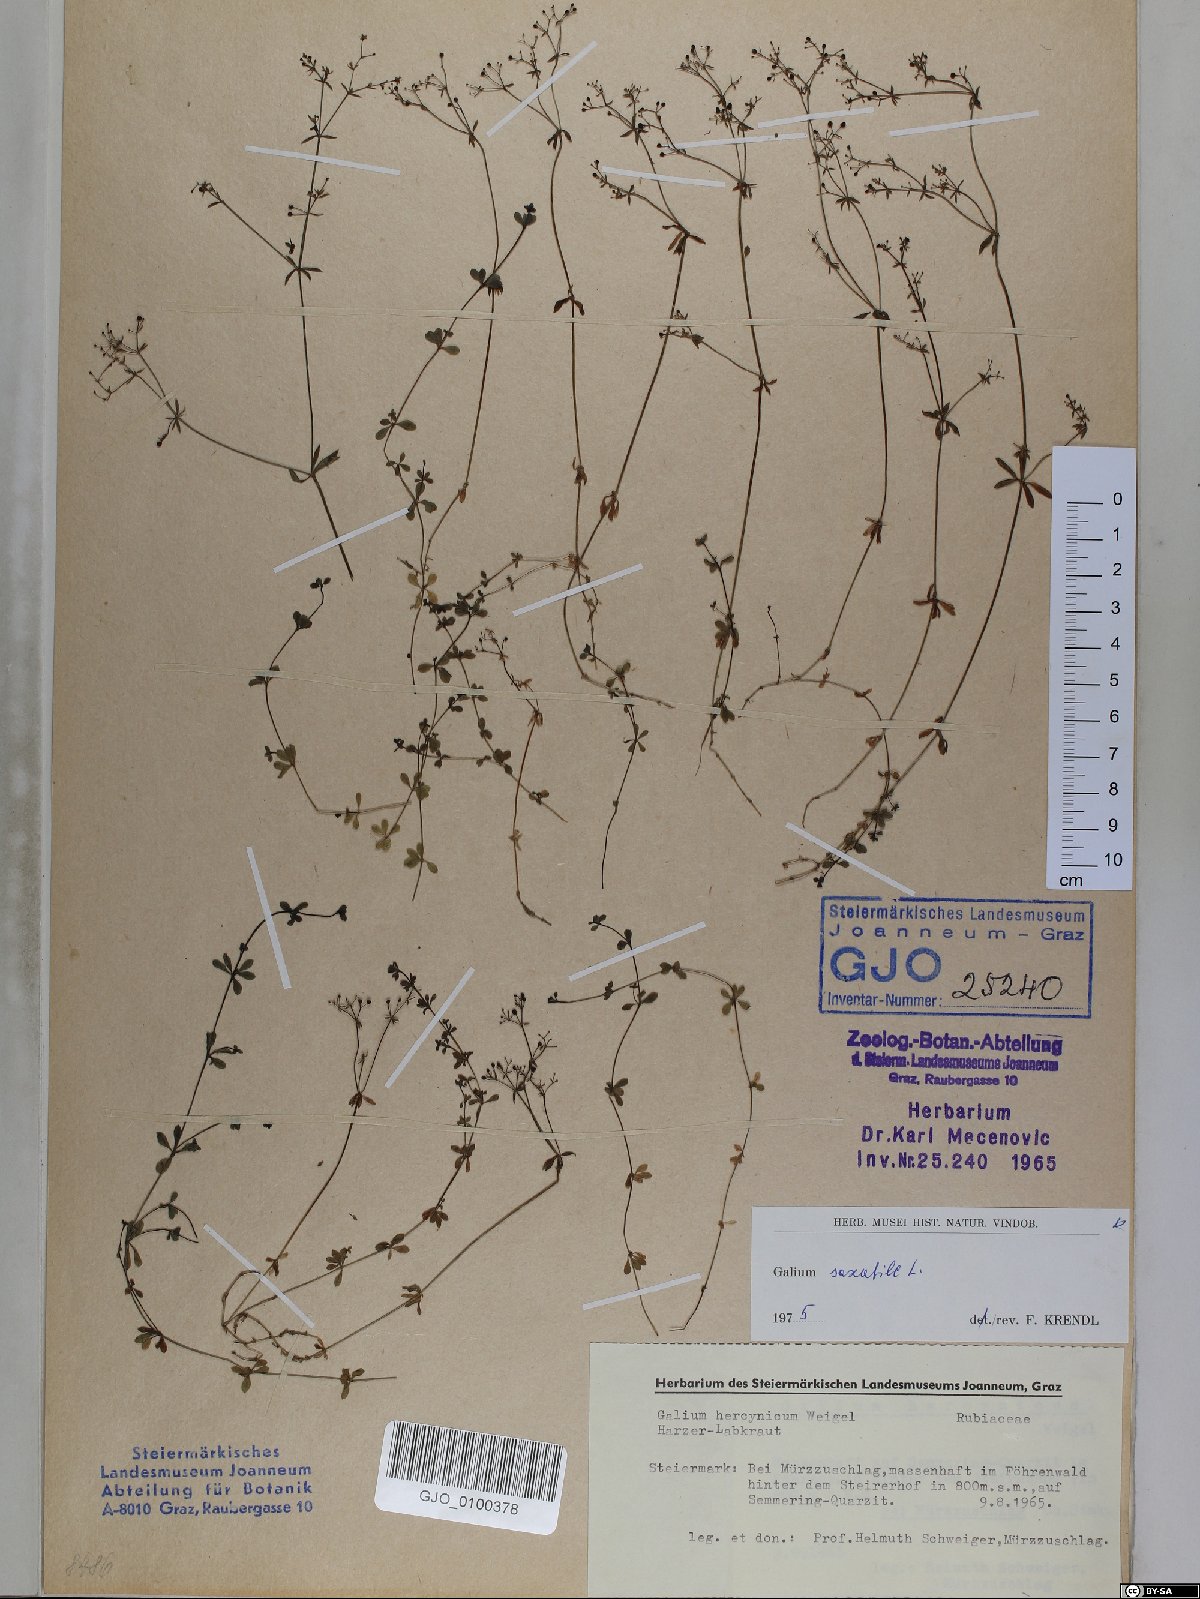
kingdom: Plantae
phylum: Tracheophyta
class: Magnoliopsida
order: Gentianales
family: Rubiaceae
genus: Galium
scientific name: Galium saxatile
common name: Heath bedstraw
